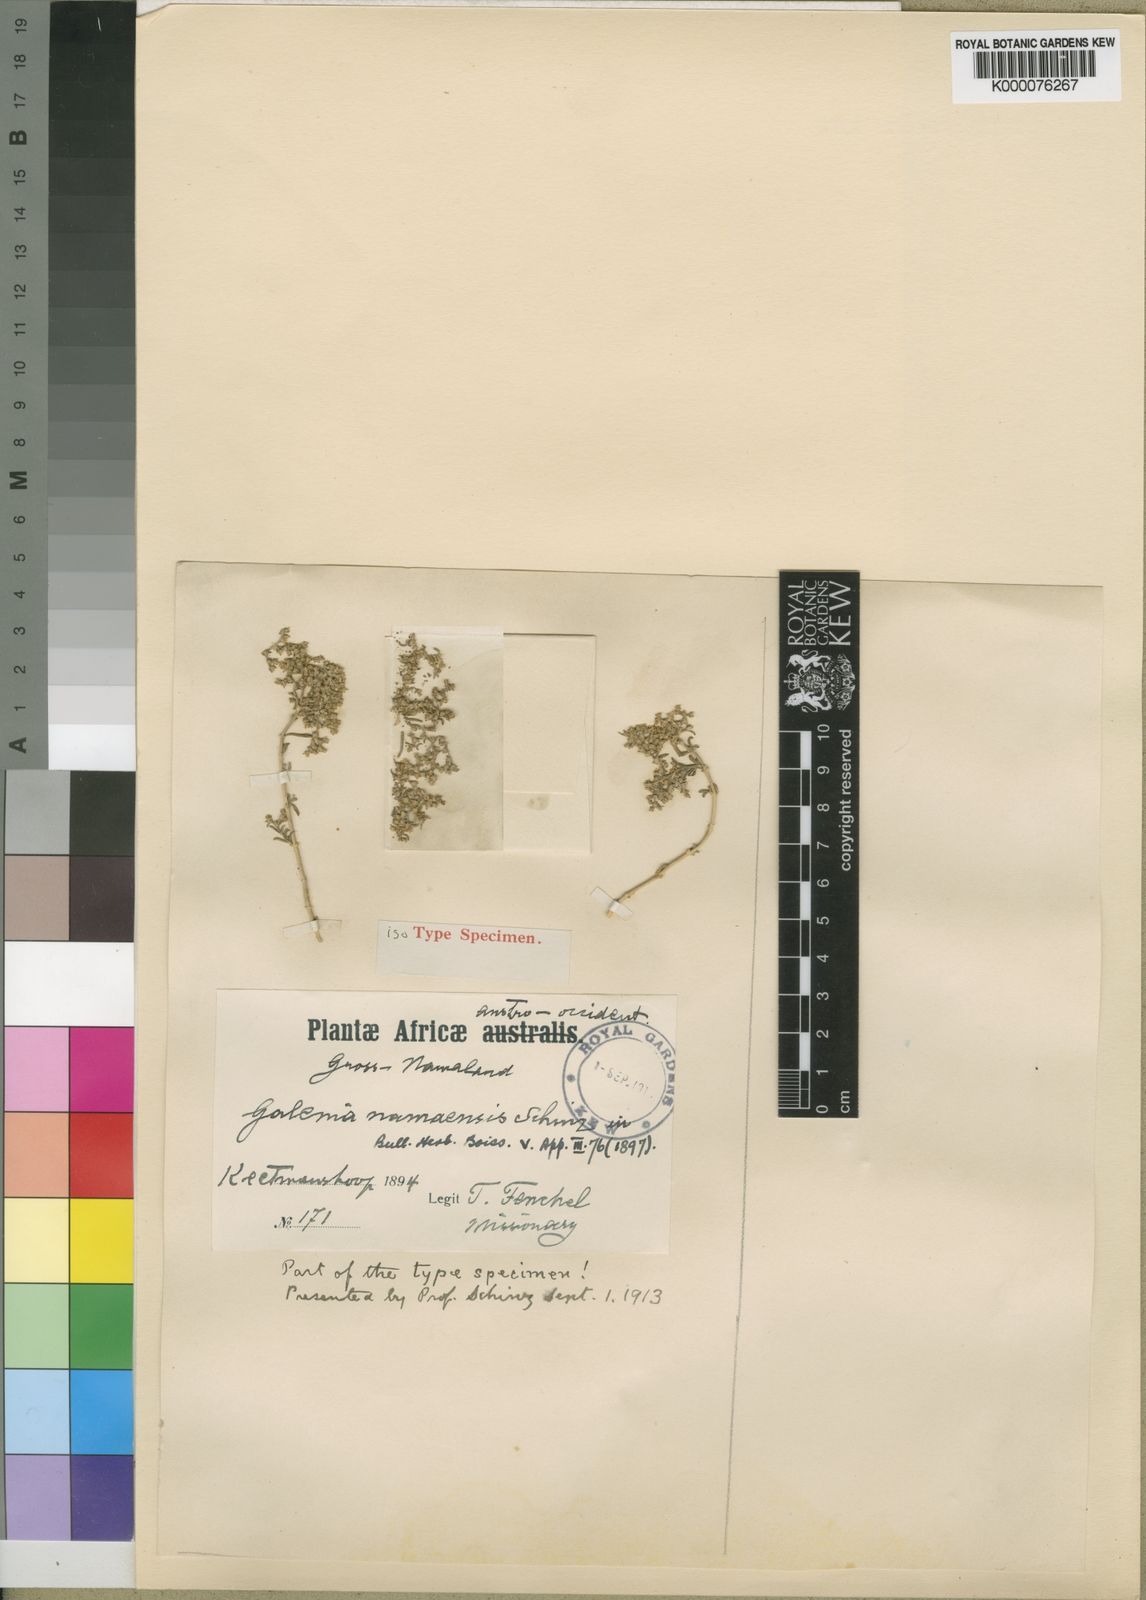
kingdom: Plantae
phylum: Tracheophyta
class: Magnoliopsida
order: Caryophyllales
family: Aizoaceae
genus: Aizoon
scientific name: Aizoon namaense
